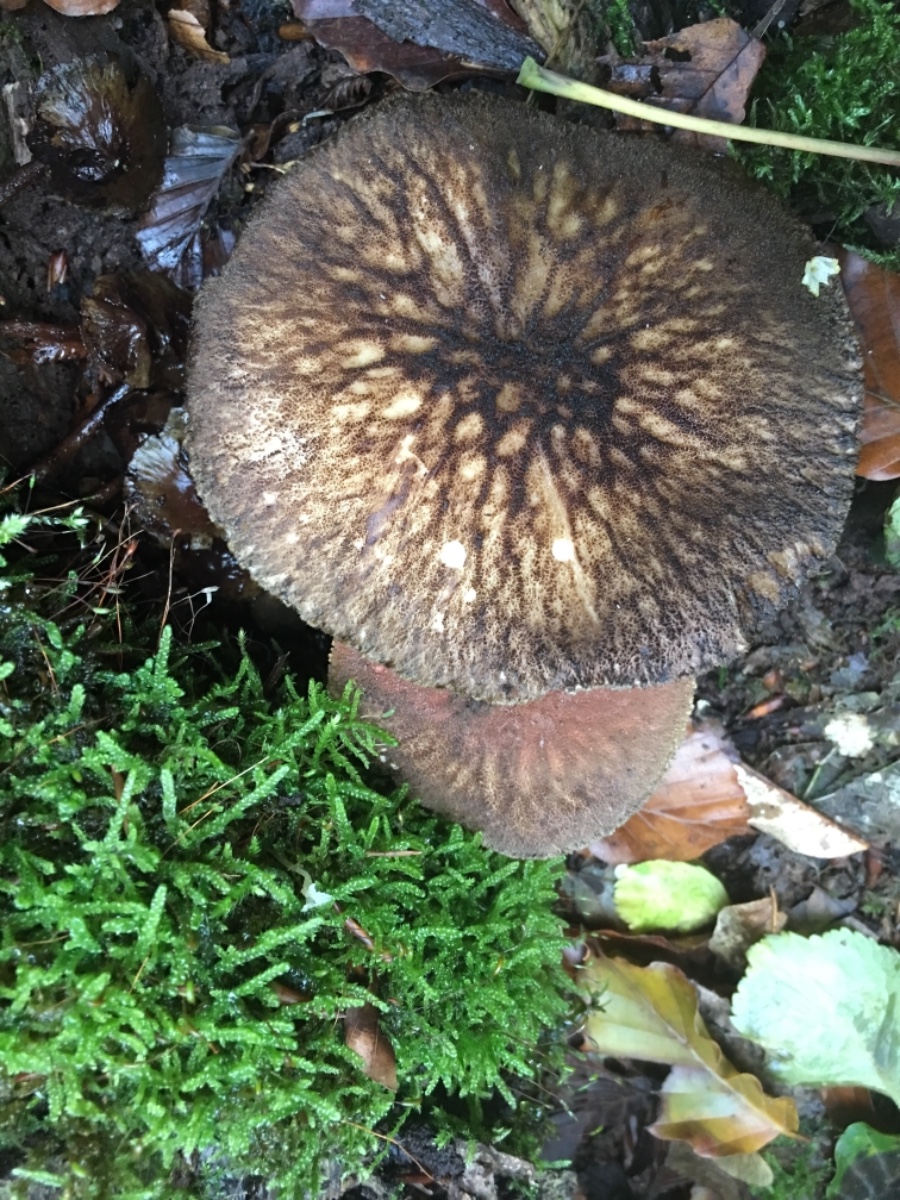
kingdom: Fungi
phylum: Basidiomycota
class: Agaricomycetes
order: Agaricales
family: Pluteaceae
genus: Pluteus
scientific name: Pluteus umbrosus
